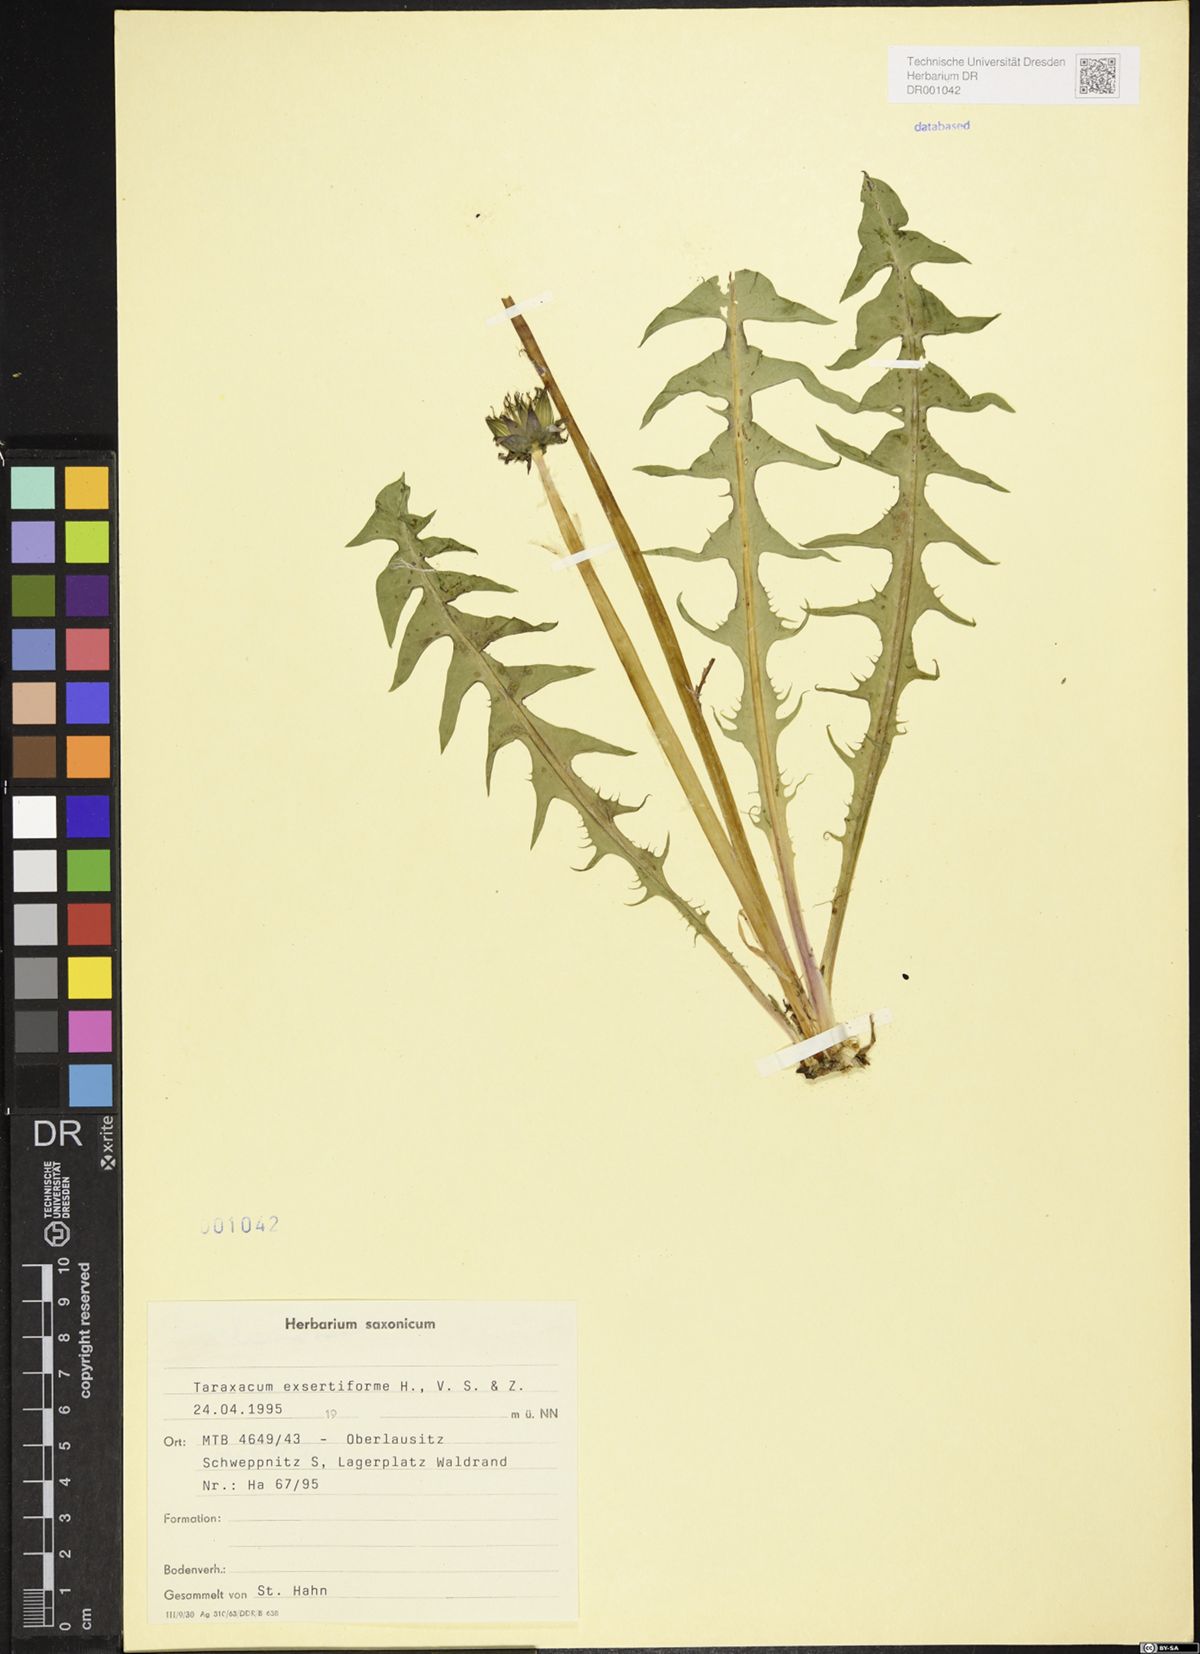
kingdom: Plantae
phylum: Tracheophyta
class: Magnoliopsida
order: Asterales
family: Asteraceae
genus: Taraxacum
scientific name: Taraxacum exsertiforme
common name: Erect-bracted dandelion
